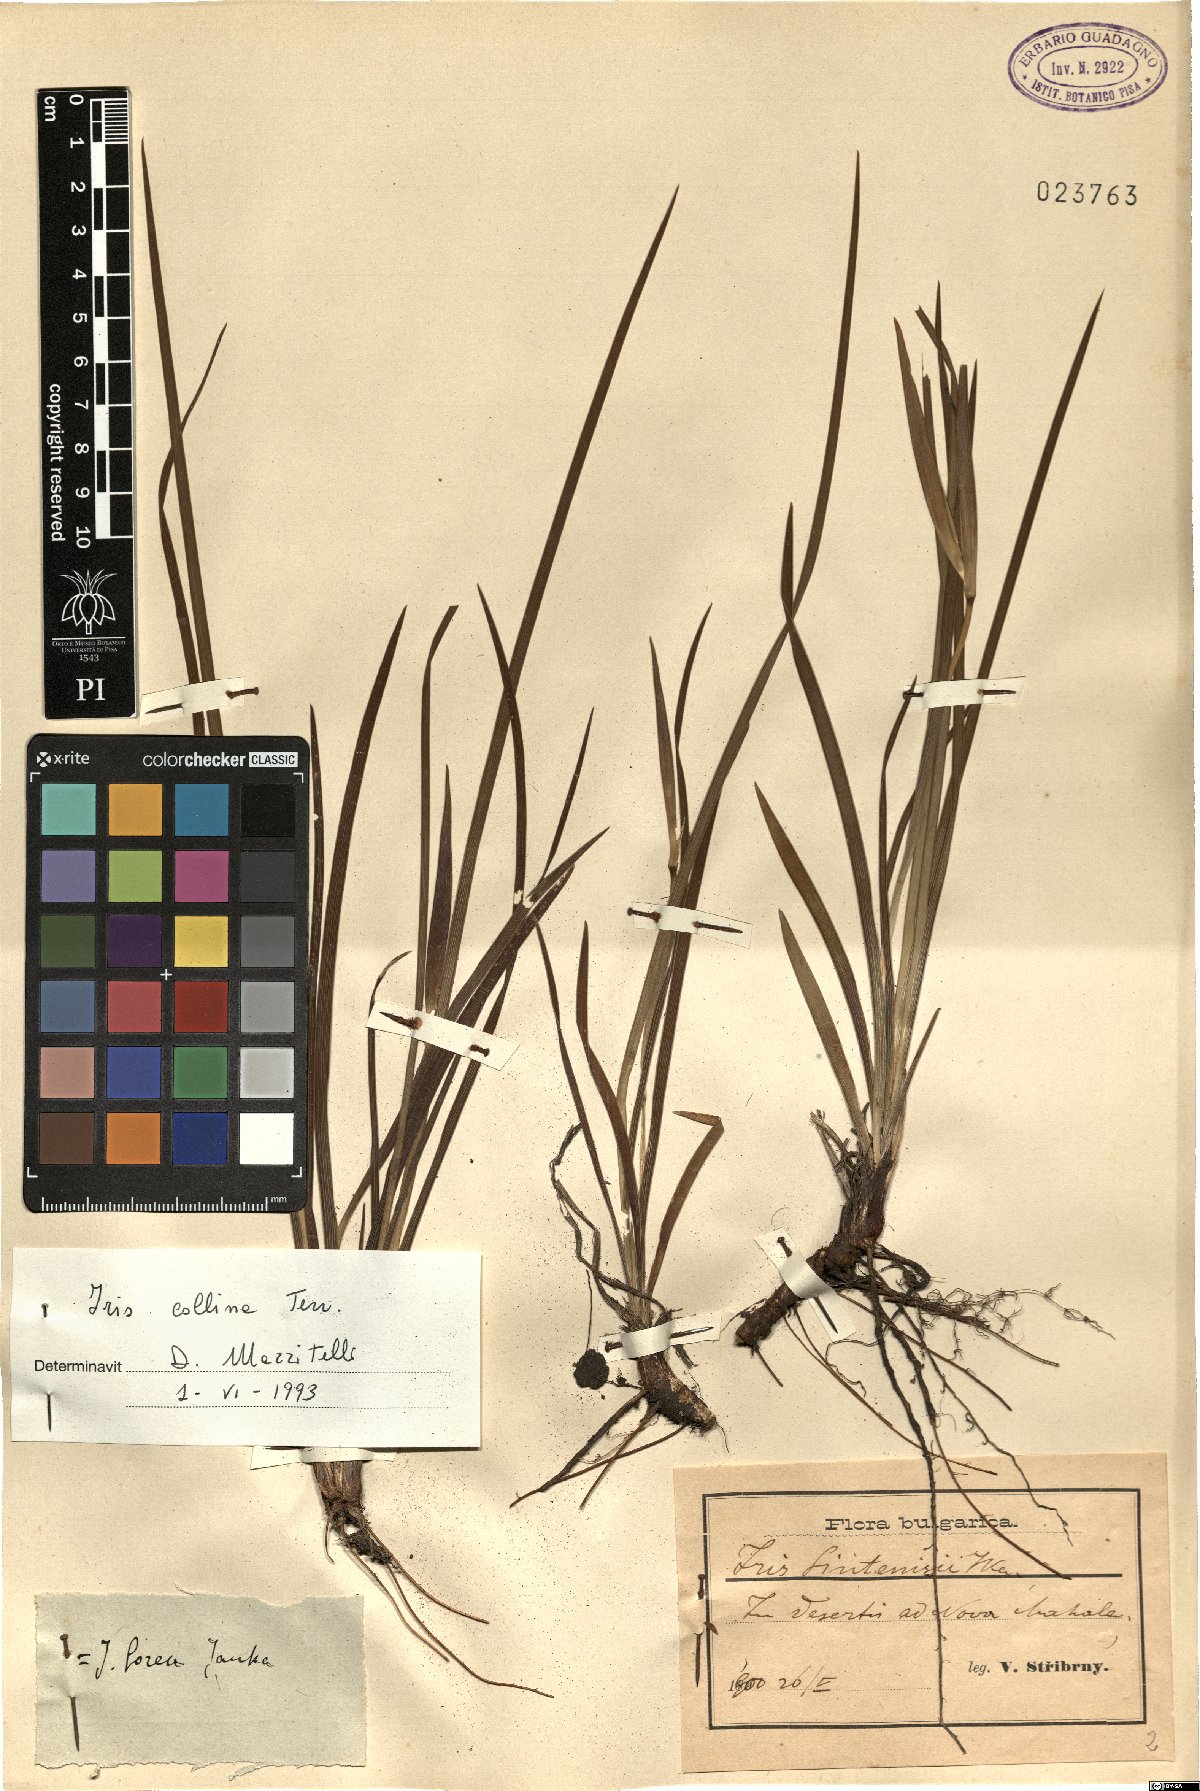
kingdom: Plantae
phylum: Tracheophyta
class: Liliopsida
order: Asparagales
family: Iridaceae
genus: Iris
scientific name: Iris sintenisii
